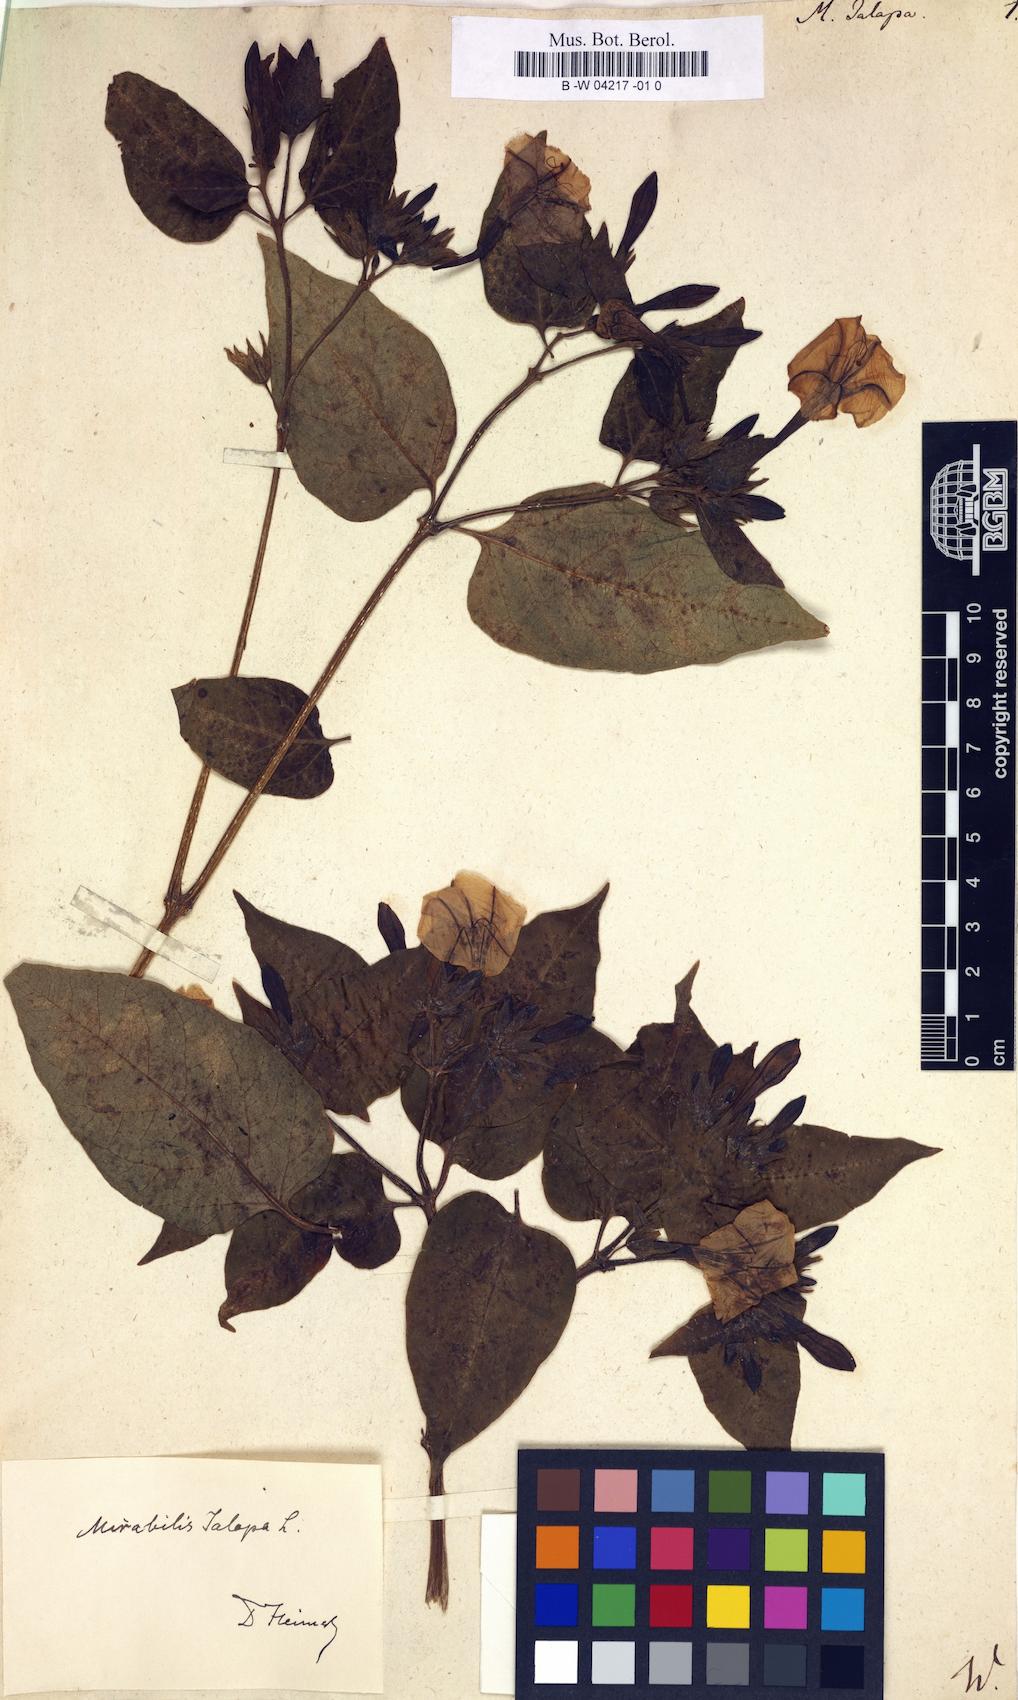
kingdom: Plantae
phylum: Tracheophyta
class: Magnoliopsida
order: Caryophyllales
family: Nyctaginaceae
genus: Mirabilis
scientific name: Mirabilis jalapa
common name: Marvel-of-peru
